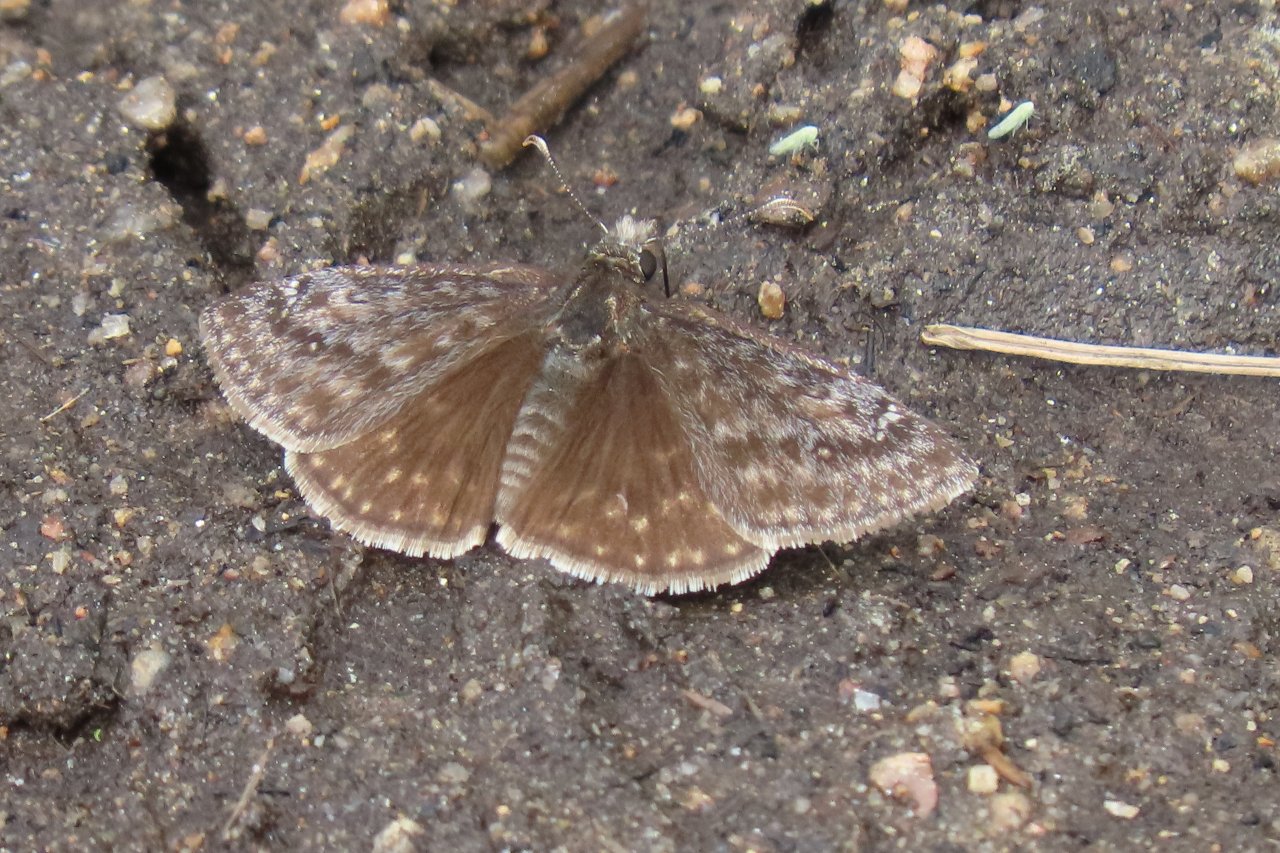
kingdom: Animalia
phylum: Arthropoda
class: Insecta
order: Lepidoptera
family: Hesperiidae
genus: Gesta
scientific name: Gesta
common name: Persius Duskywing
